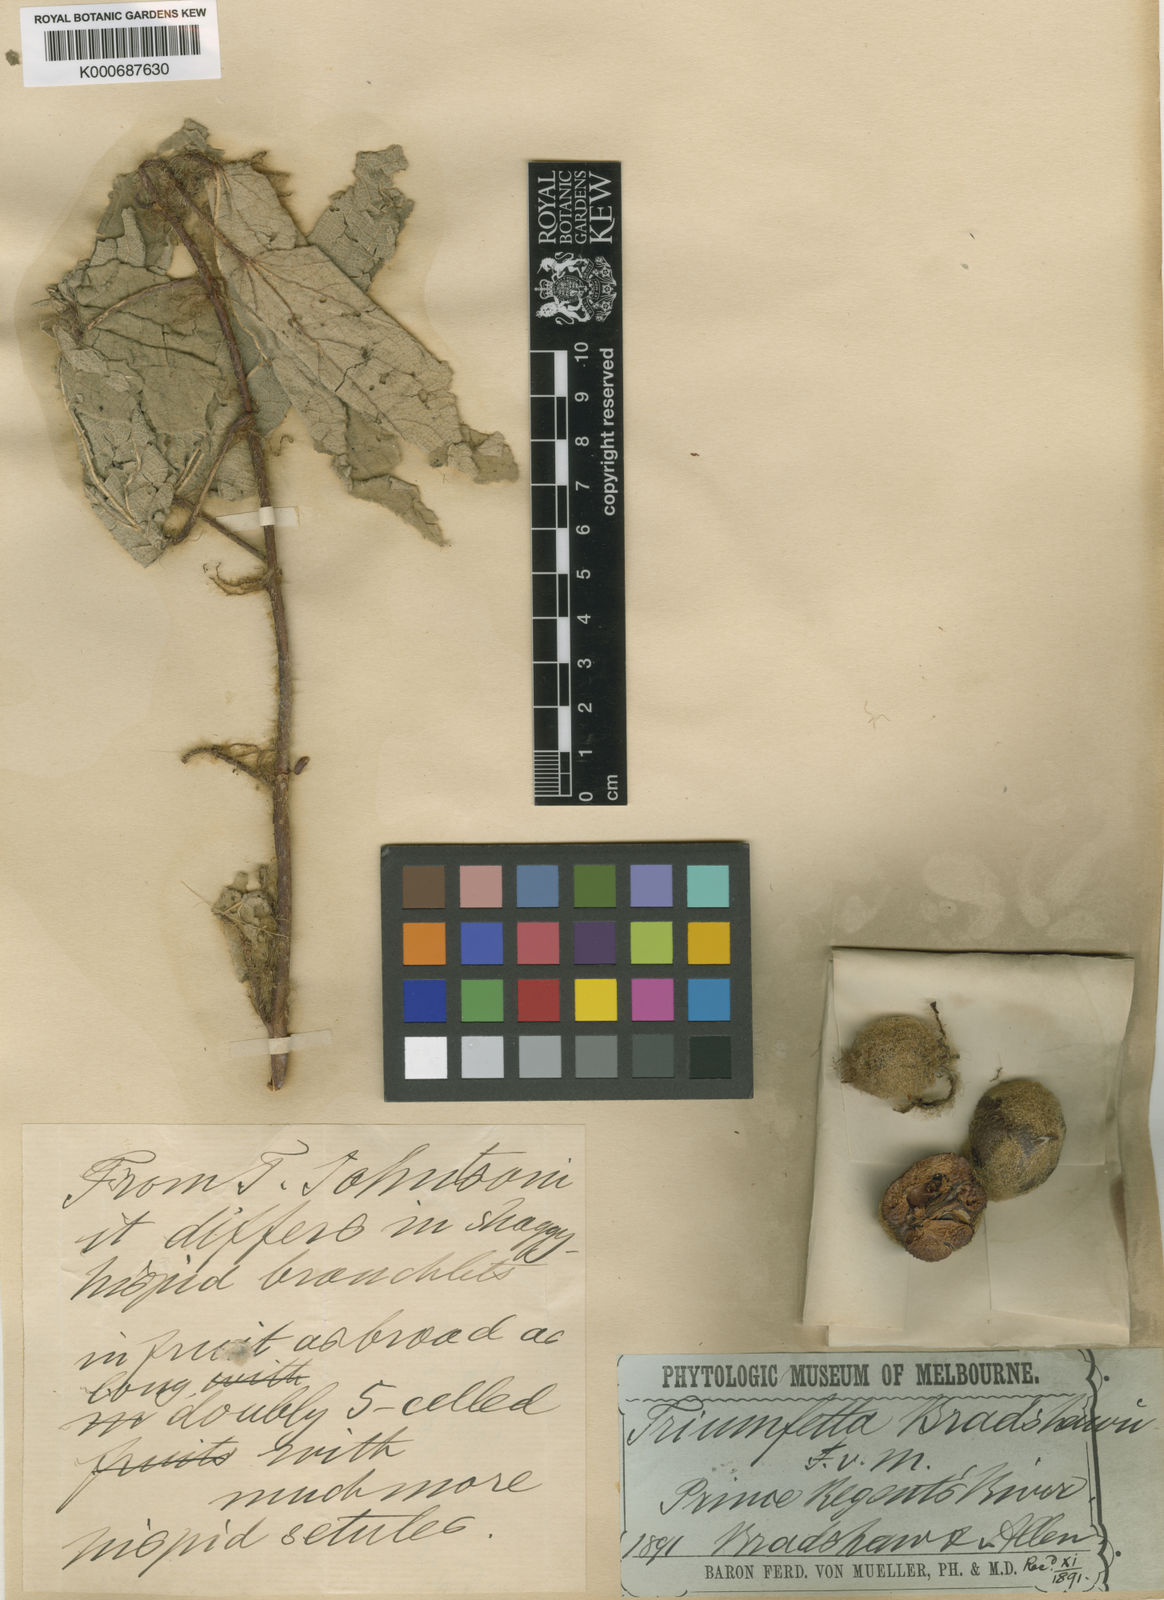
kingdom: Plantae
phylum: Tracheophyta
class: Magnoliopsida
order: Malvales
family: Malvaceae
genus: Triumfetta
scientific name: Triumfetta bradshawii
